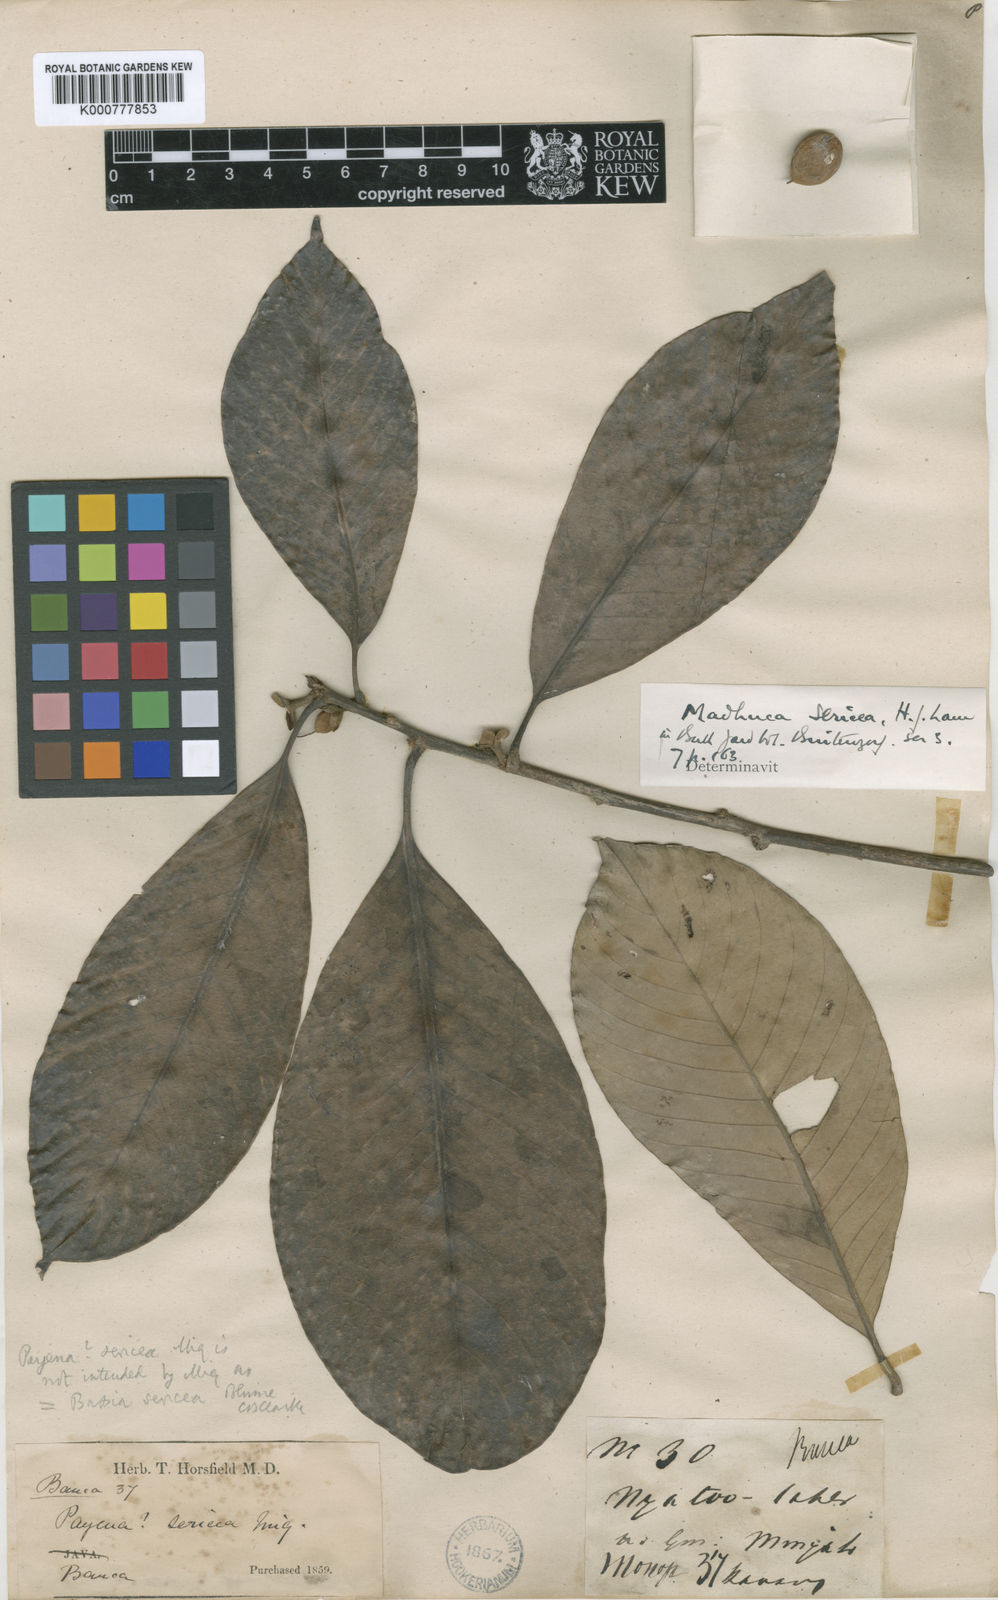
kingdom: Plantae
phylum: Tracheophyta
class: Magnoliopsida
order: Ericales
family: Sapotaceae
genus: Madhuca
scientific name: Madhuca
